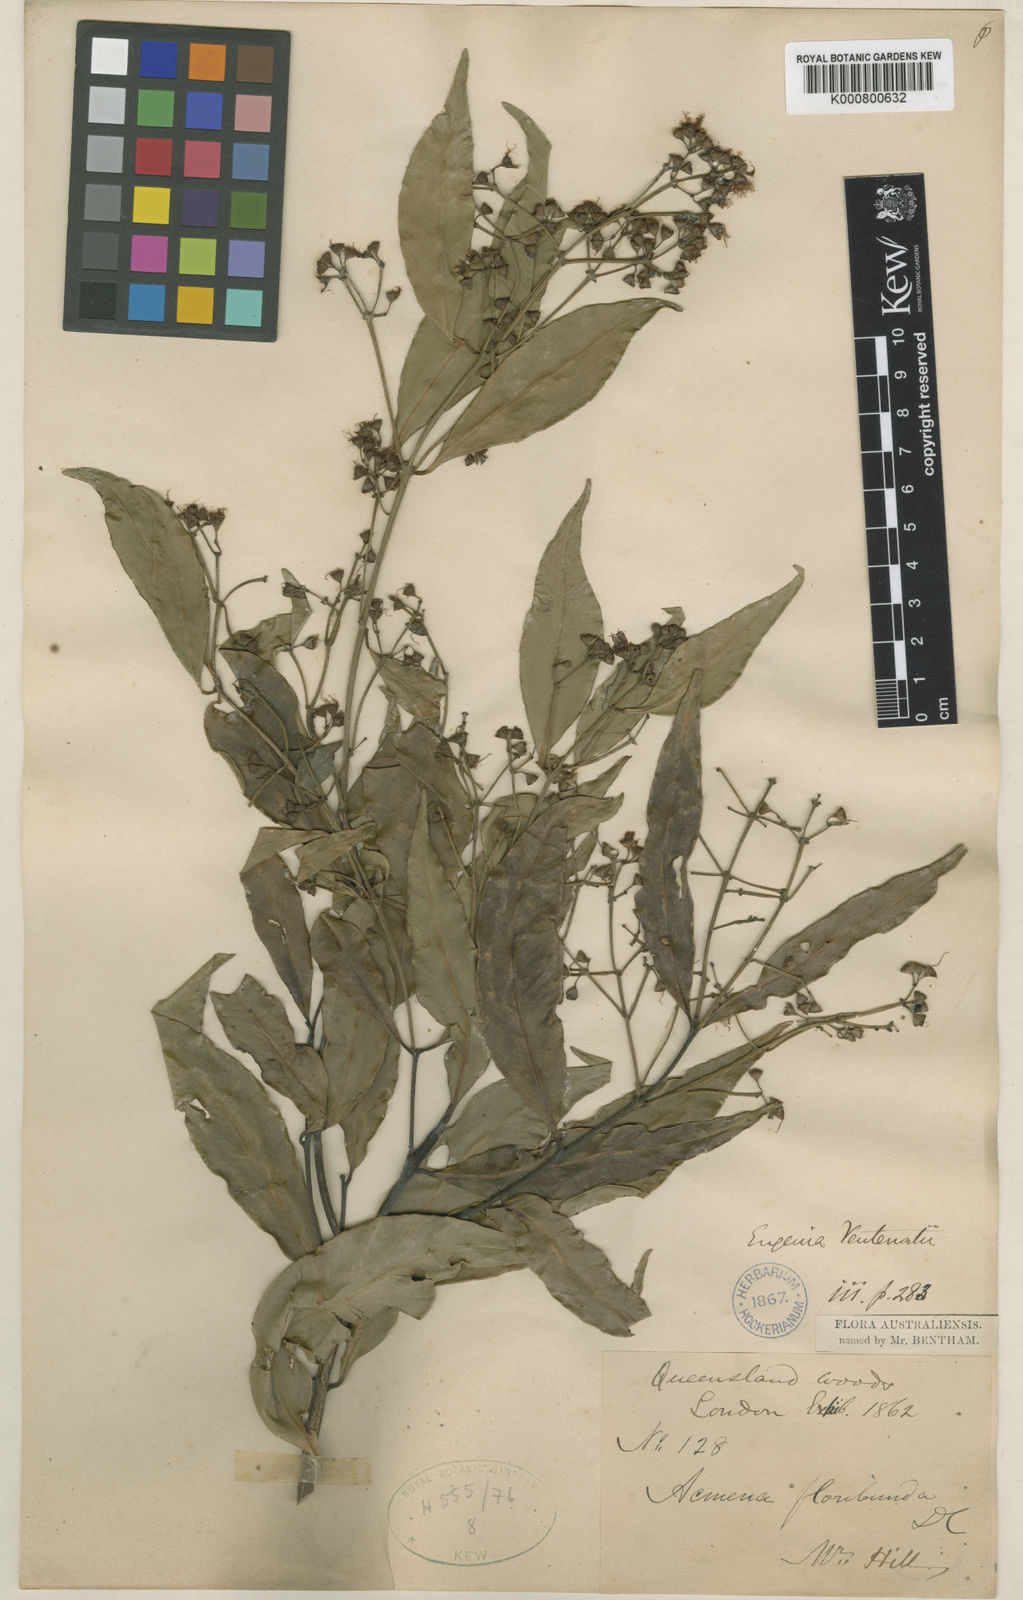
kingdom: Plantae
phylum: Tracheophyta
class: Magnoliopsida
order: Myrtales
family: Myrtaceae
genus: Syzygium
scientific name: Syzygium floribundum
